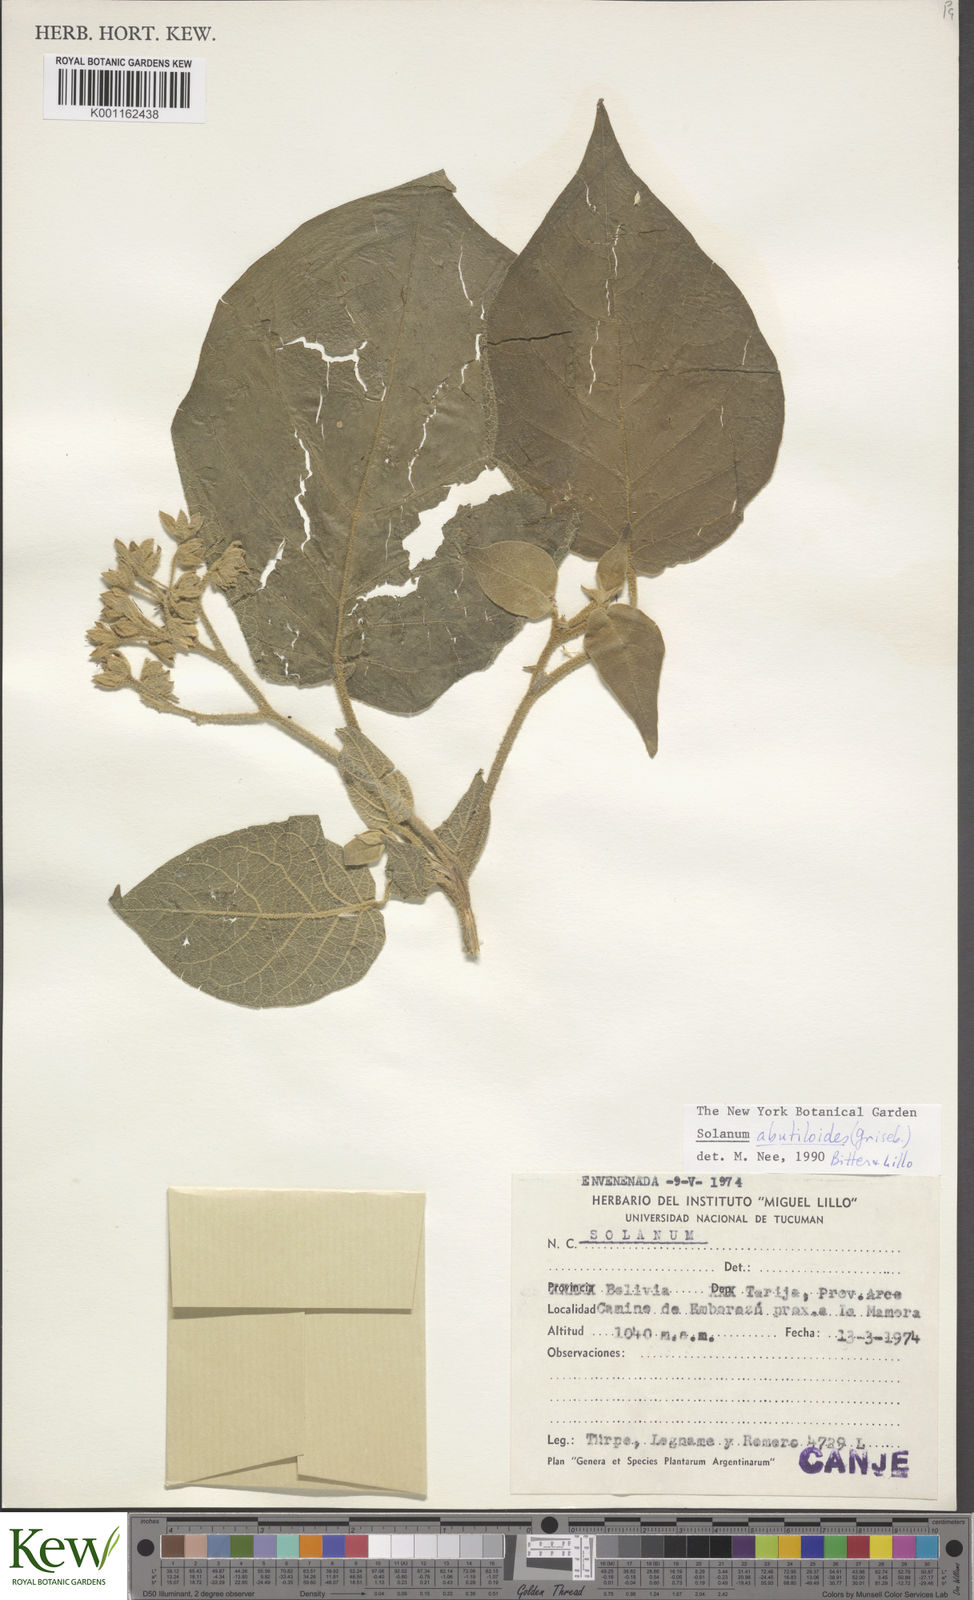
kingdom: Plantae
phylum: Tracheophyta
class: Magnoliopsida
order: Solanales
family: Solanaceae
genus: Solanum
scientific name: Solanum abutiloides
